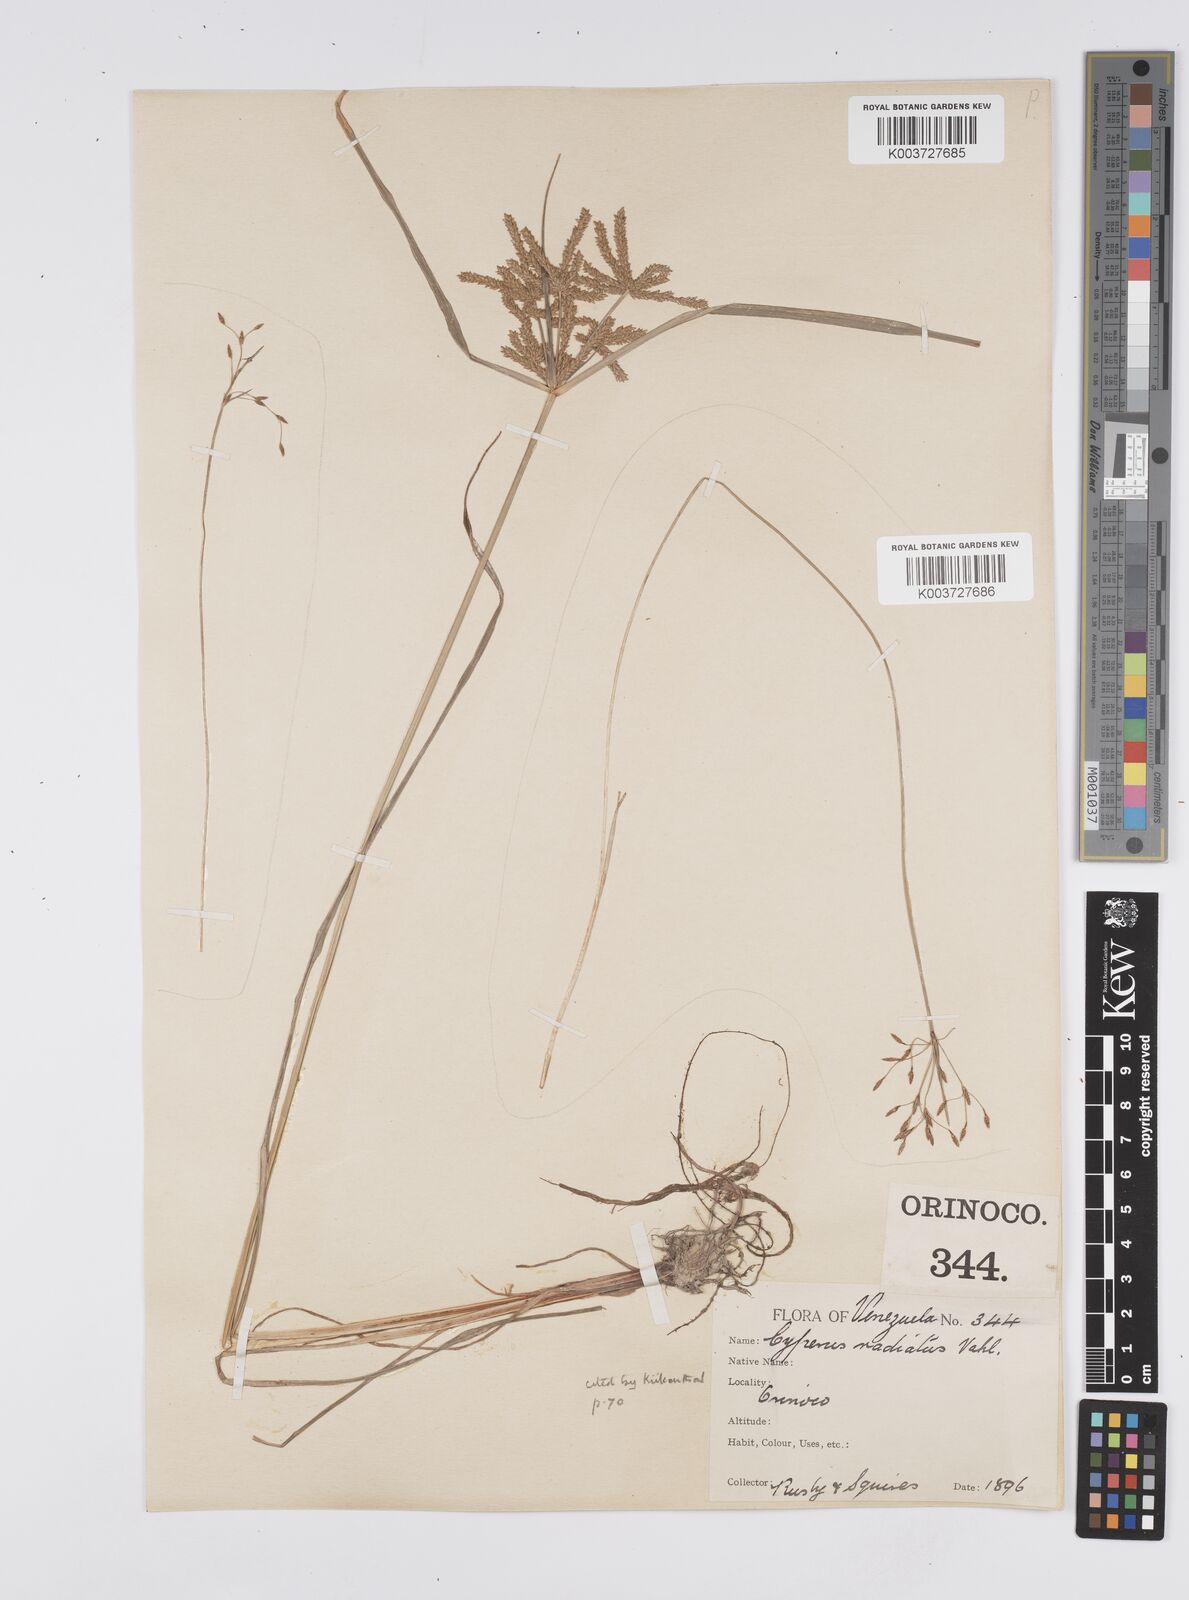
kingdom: Plantae
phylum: Tracheophyta
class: Liliopsida
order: Poales
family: Cyperaceae
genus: Cyperus
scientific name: Cyperus imbricatus
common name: Shingle flatsedge
